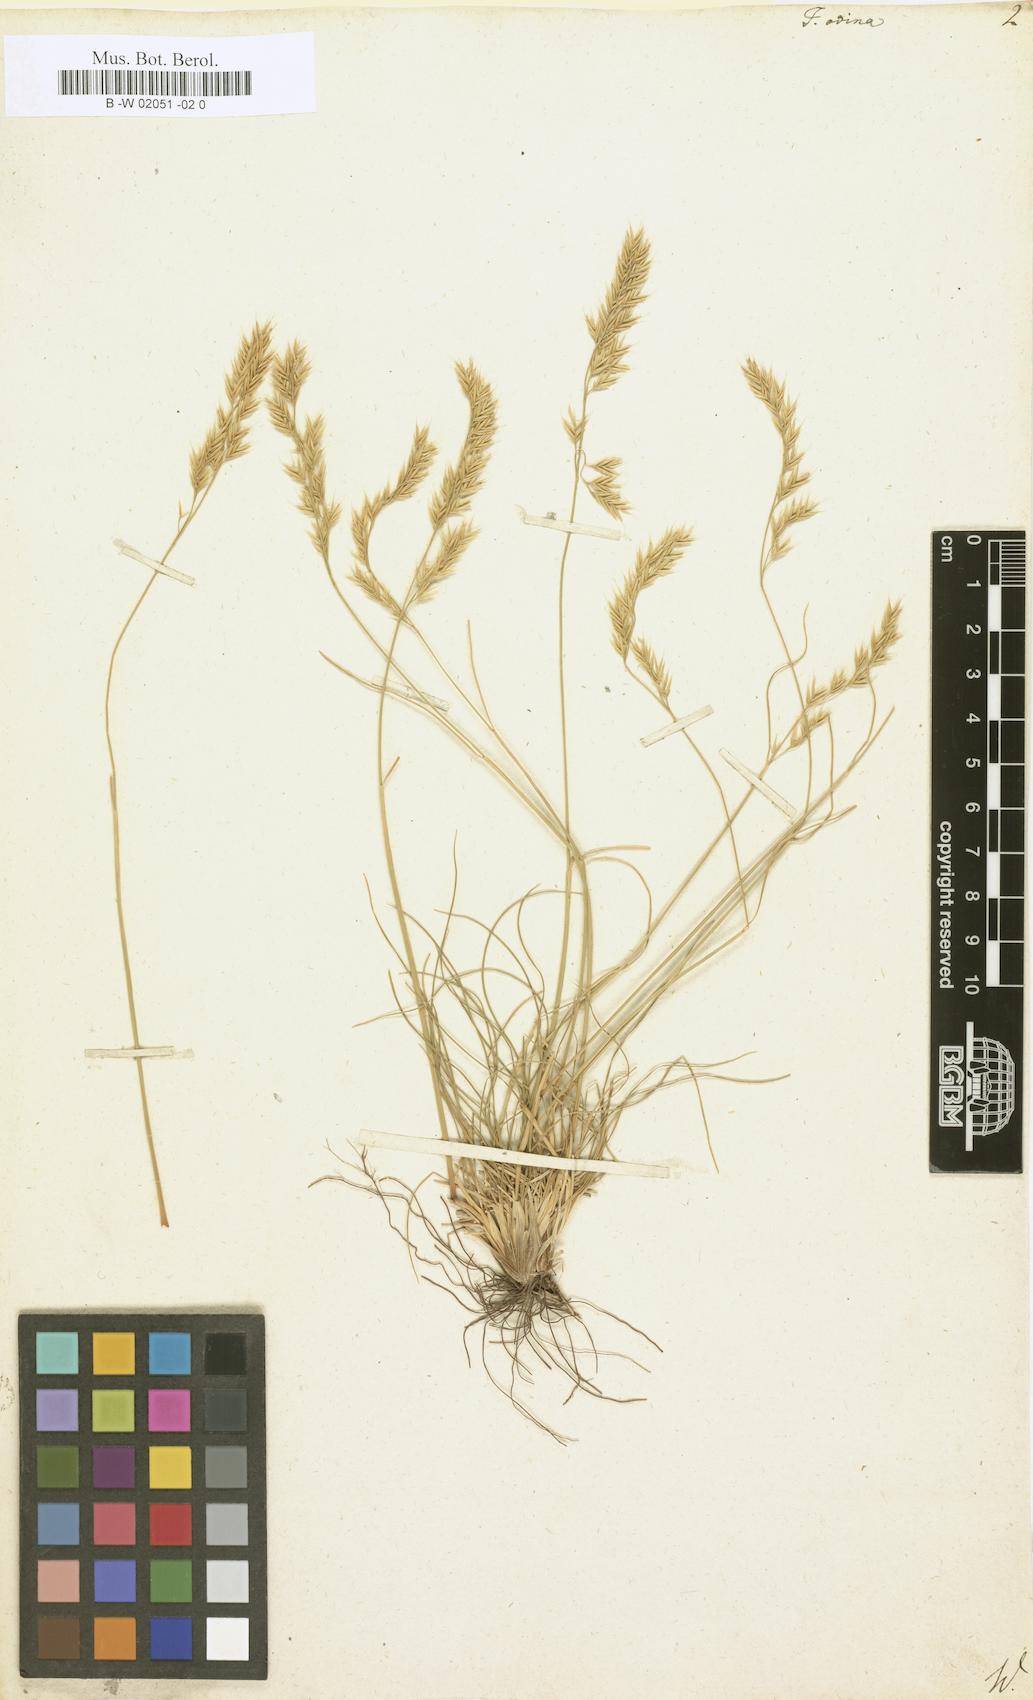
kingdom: Plantae
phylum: Tracheophyta
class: Liliopsida
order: Poales
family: Poaceae
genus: Festuca
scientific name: Festuca ovina
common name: Sheep fescue
